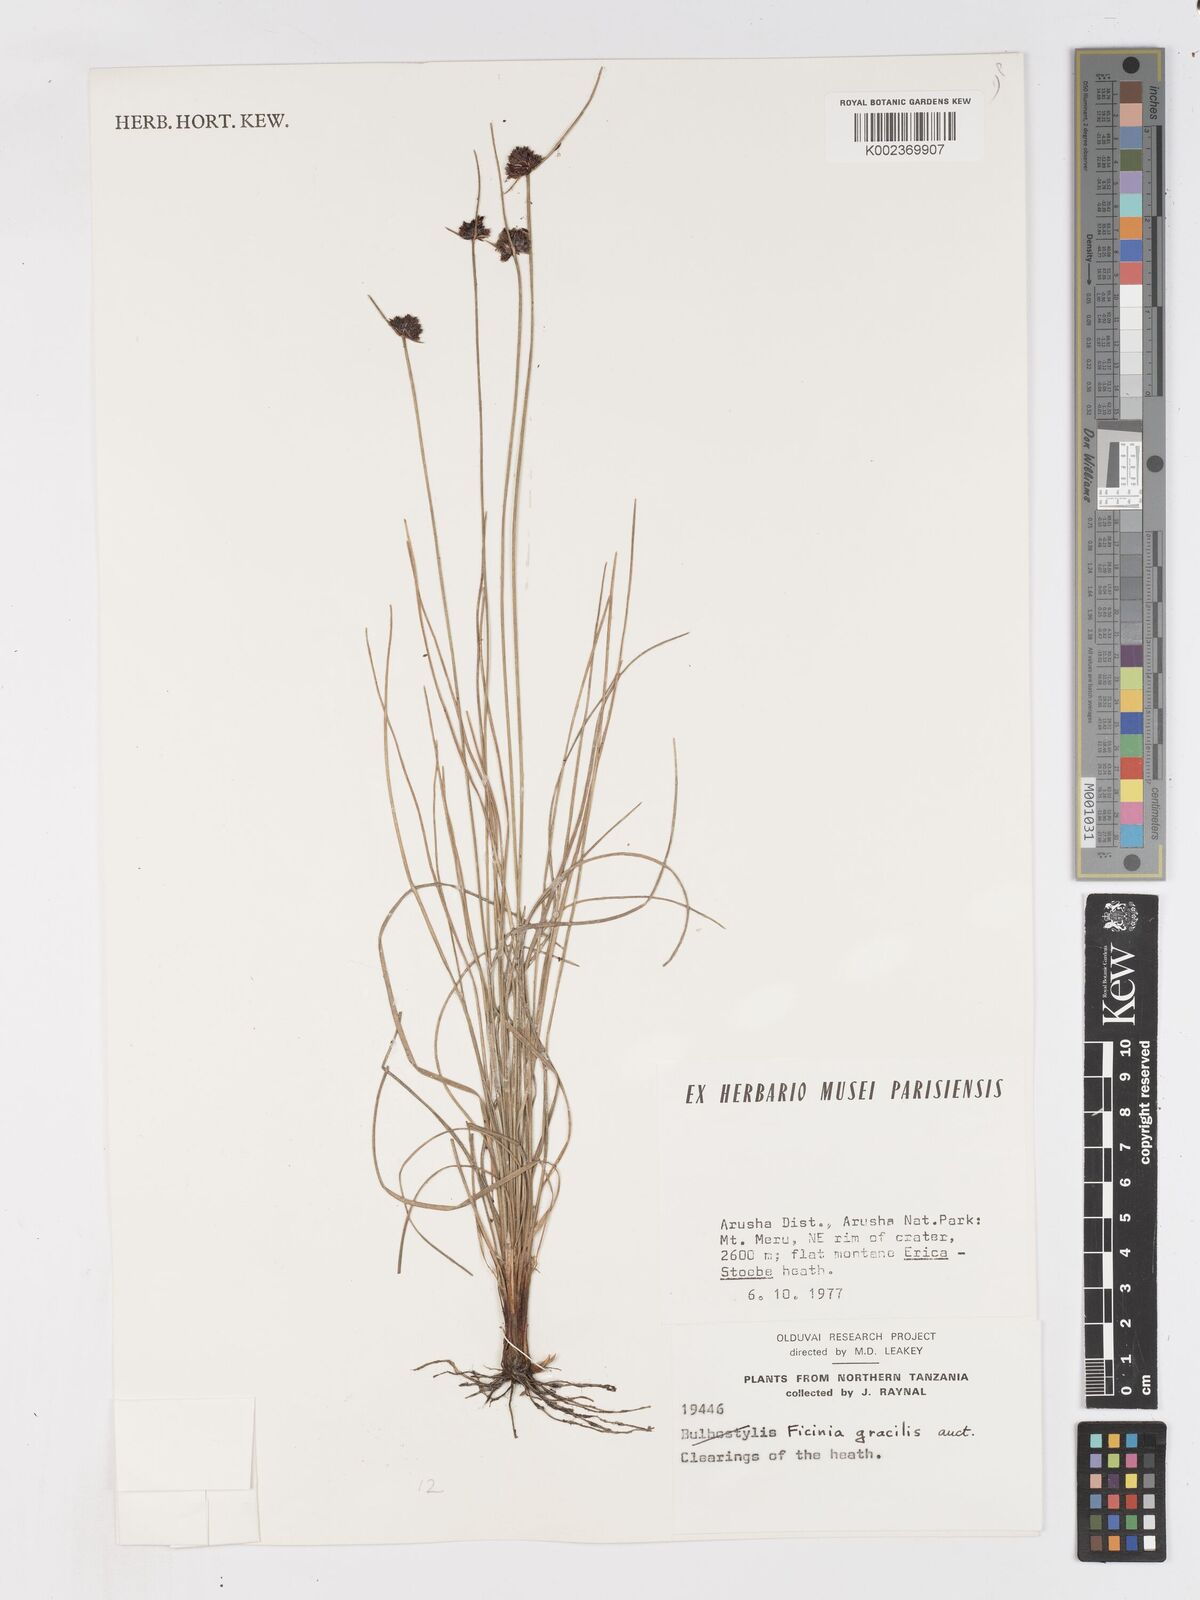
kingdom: Plantae
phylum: Tracheophyta
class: Liliopsida
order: Poales
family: Cyperaceae
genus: Ficinia
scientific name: Ficinia gracilis
